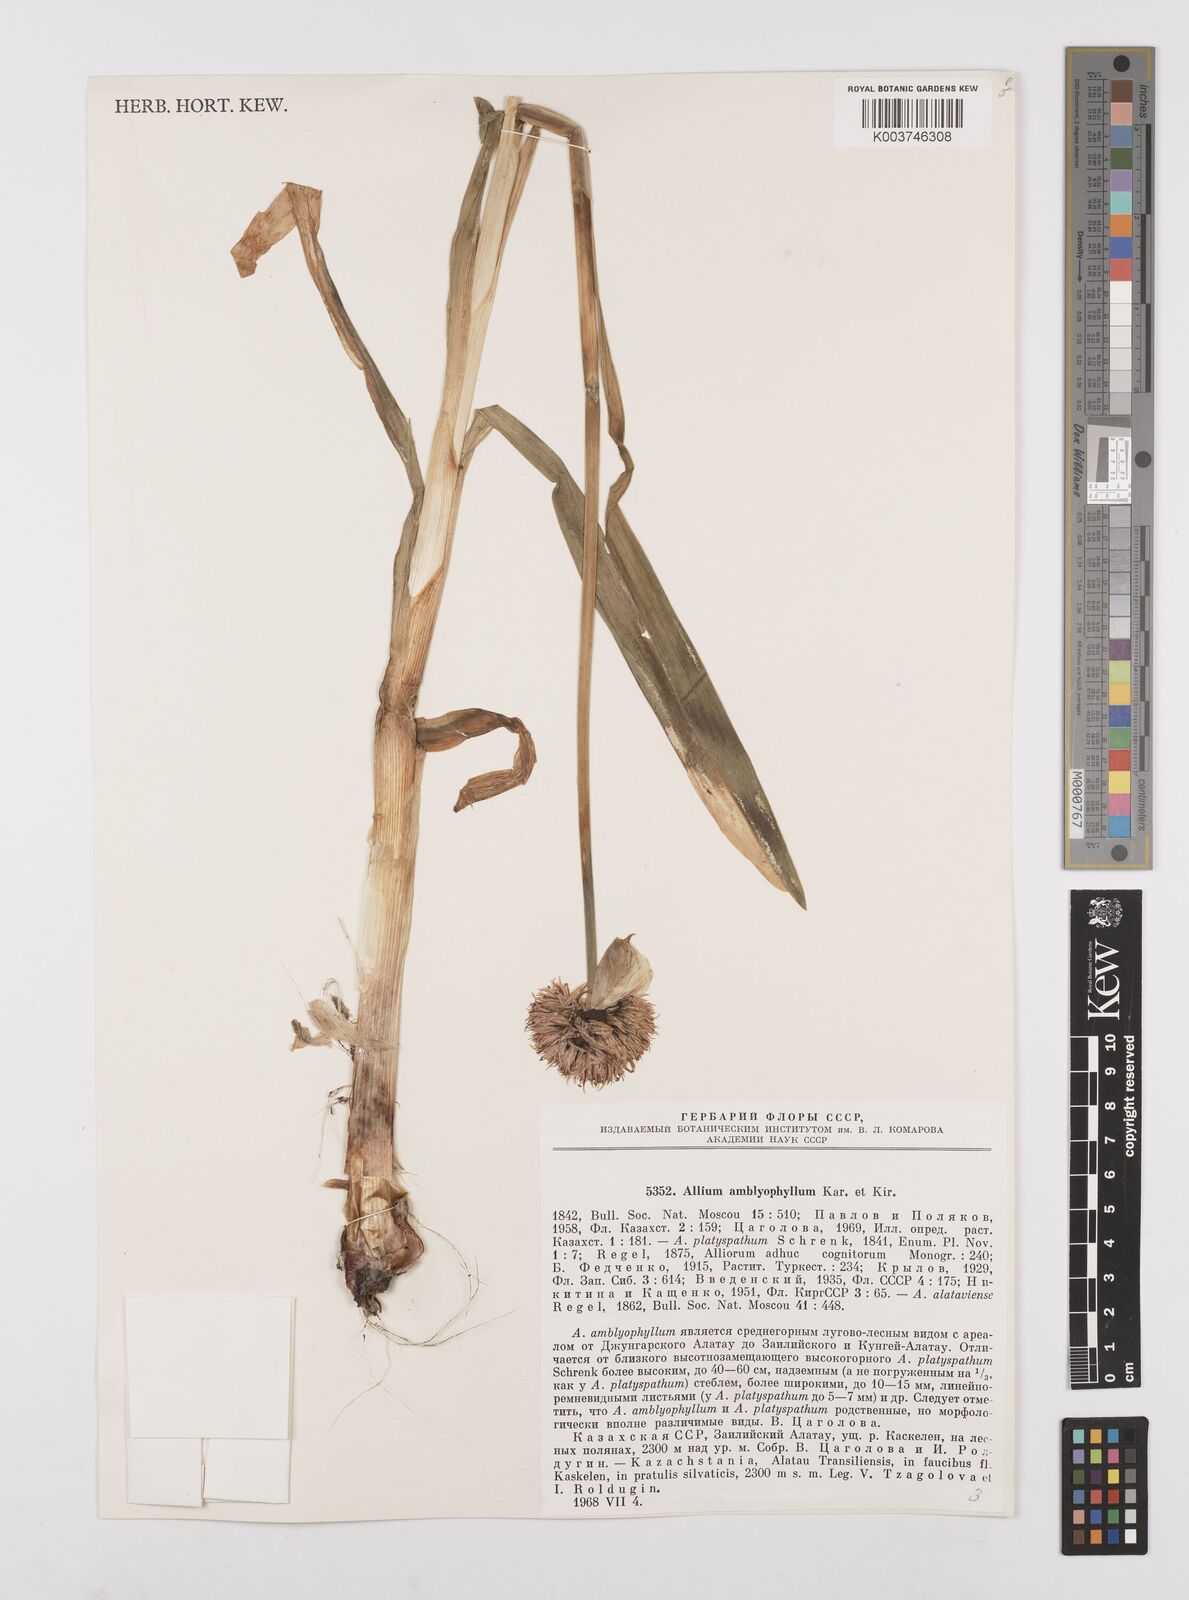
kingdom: Plantae
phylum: Tracheophyta
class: Liliopsida
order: Asparagales
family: Amaryllidaceae
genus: Allium
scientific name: Allium platyspathum
